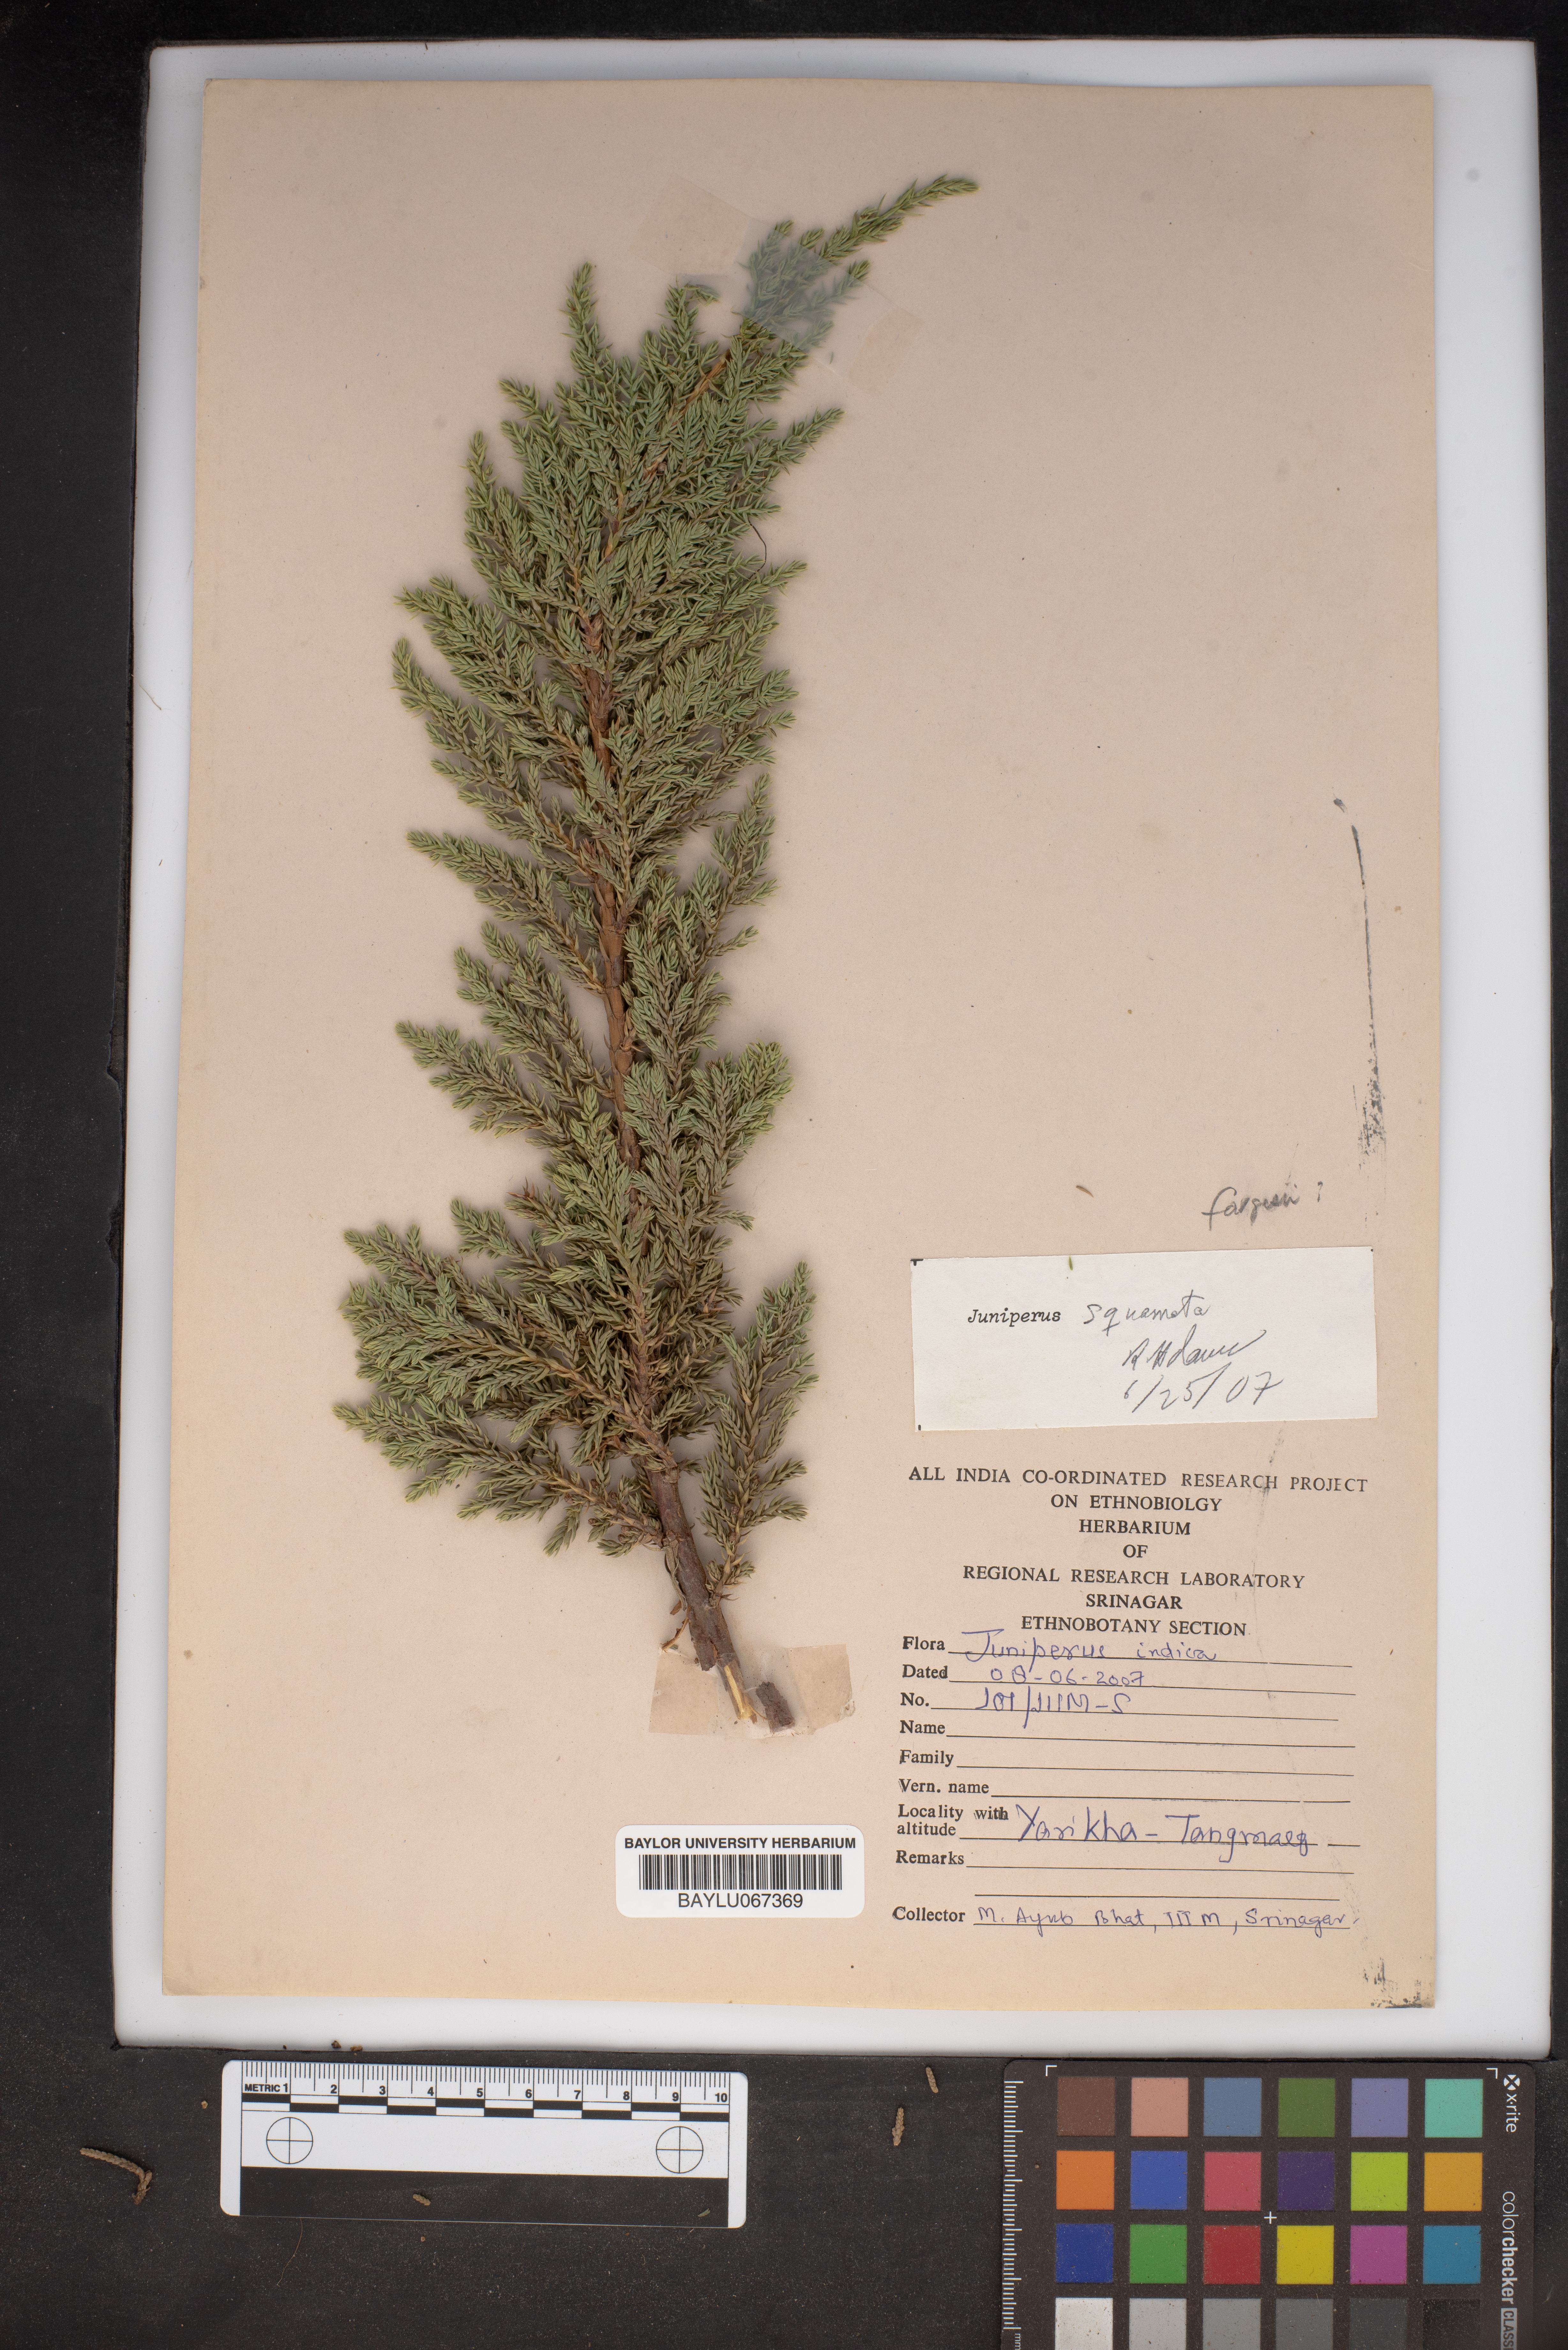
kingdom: Plantae
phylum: Tracheophyta
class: Pinopsida
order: Pinales
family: Cupressaceae
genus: Juniperus
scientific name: Juniperus indica
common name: Black juniper
